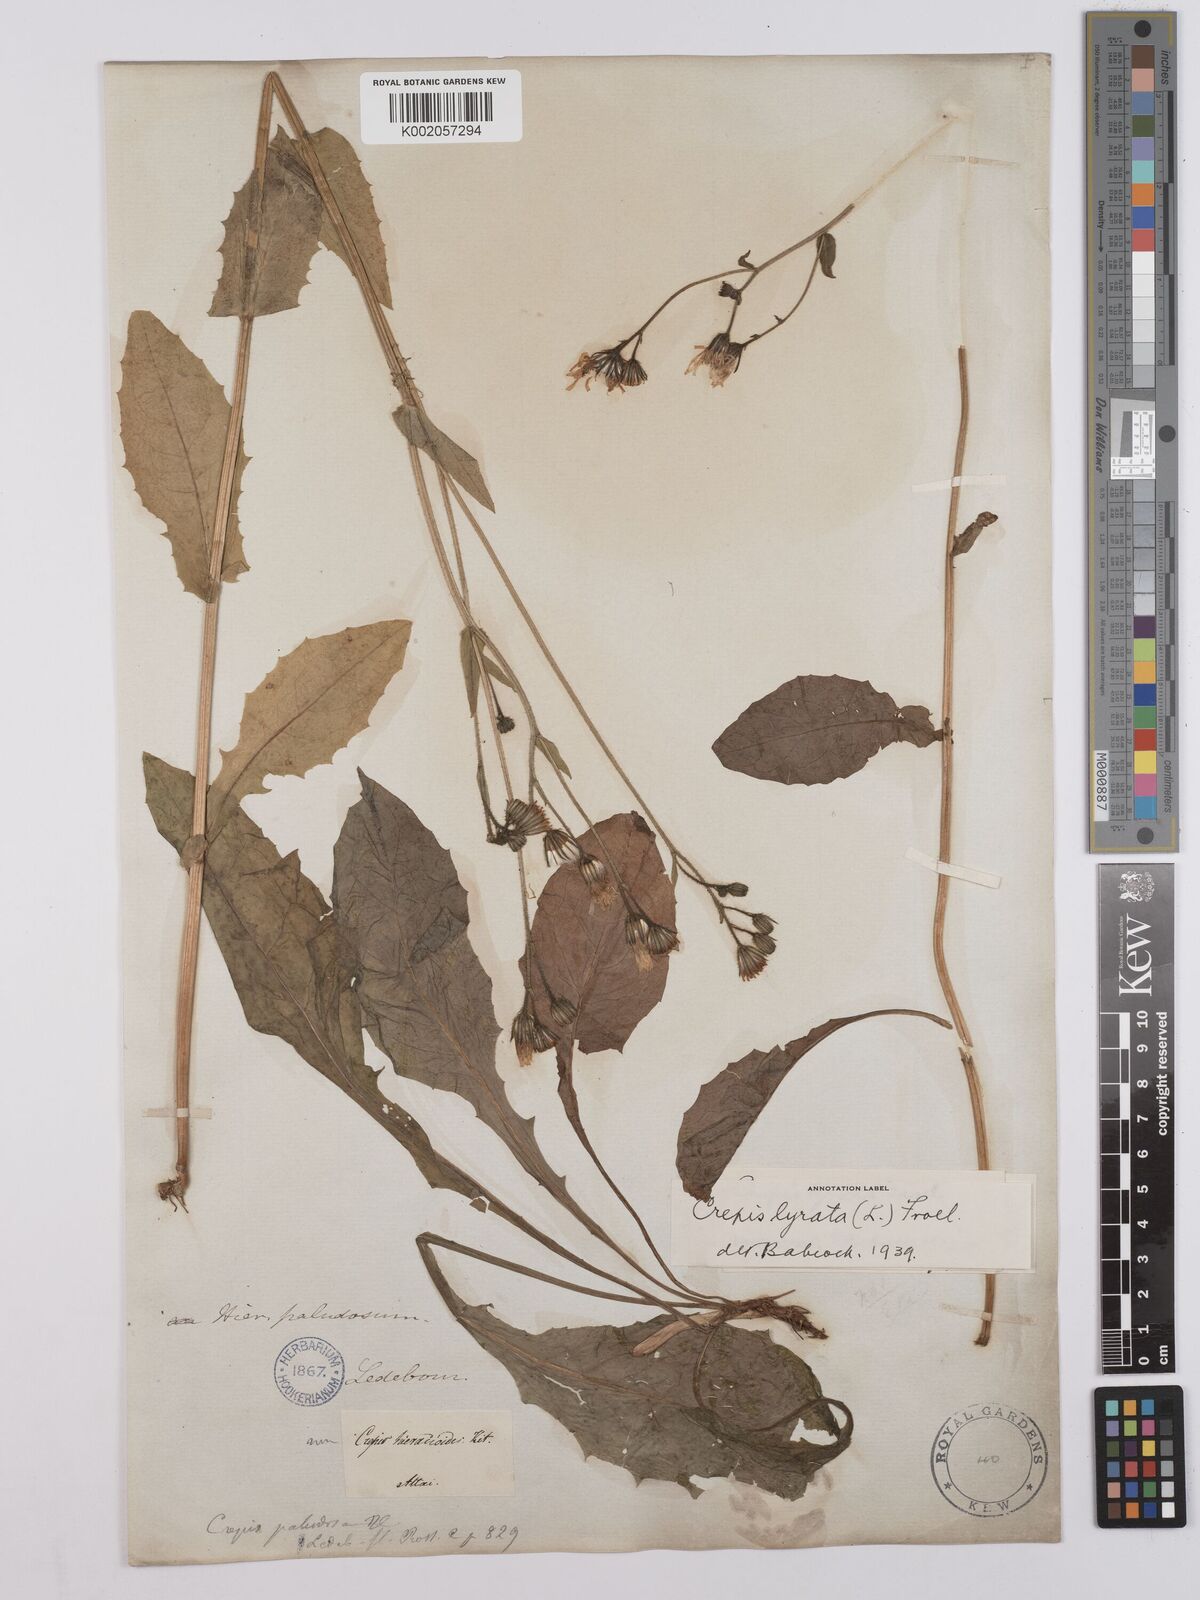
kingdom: Plantae
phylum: Tracheophyta
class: Magnoliopsida
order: Asterales
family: Asteraceae
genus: Crepis
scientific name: Crepis lyrata
